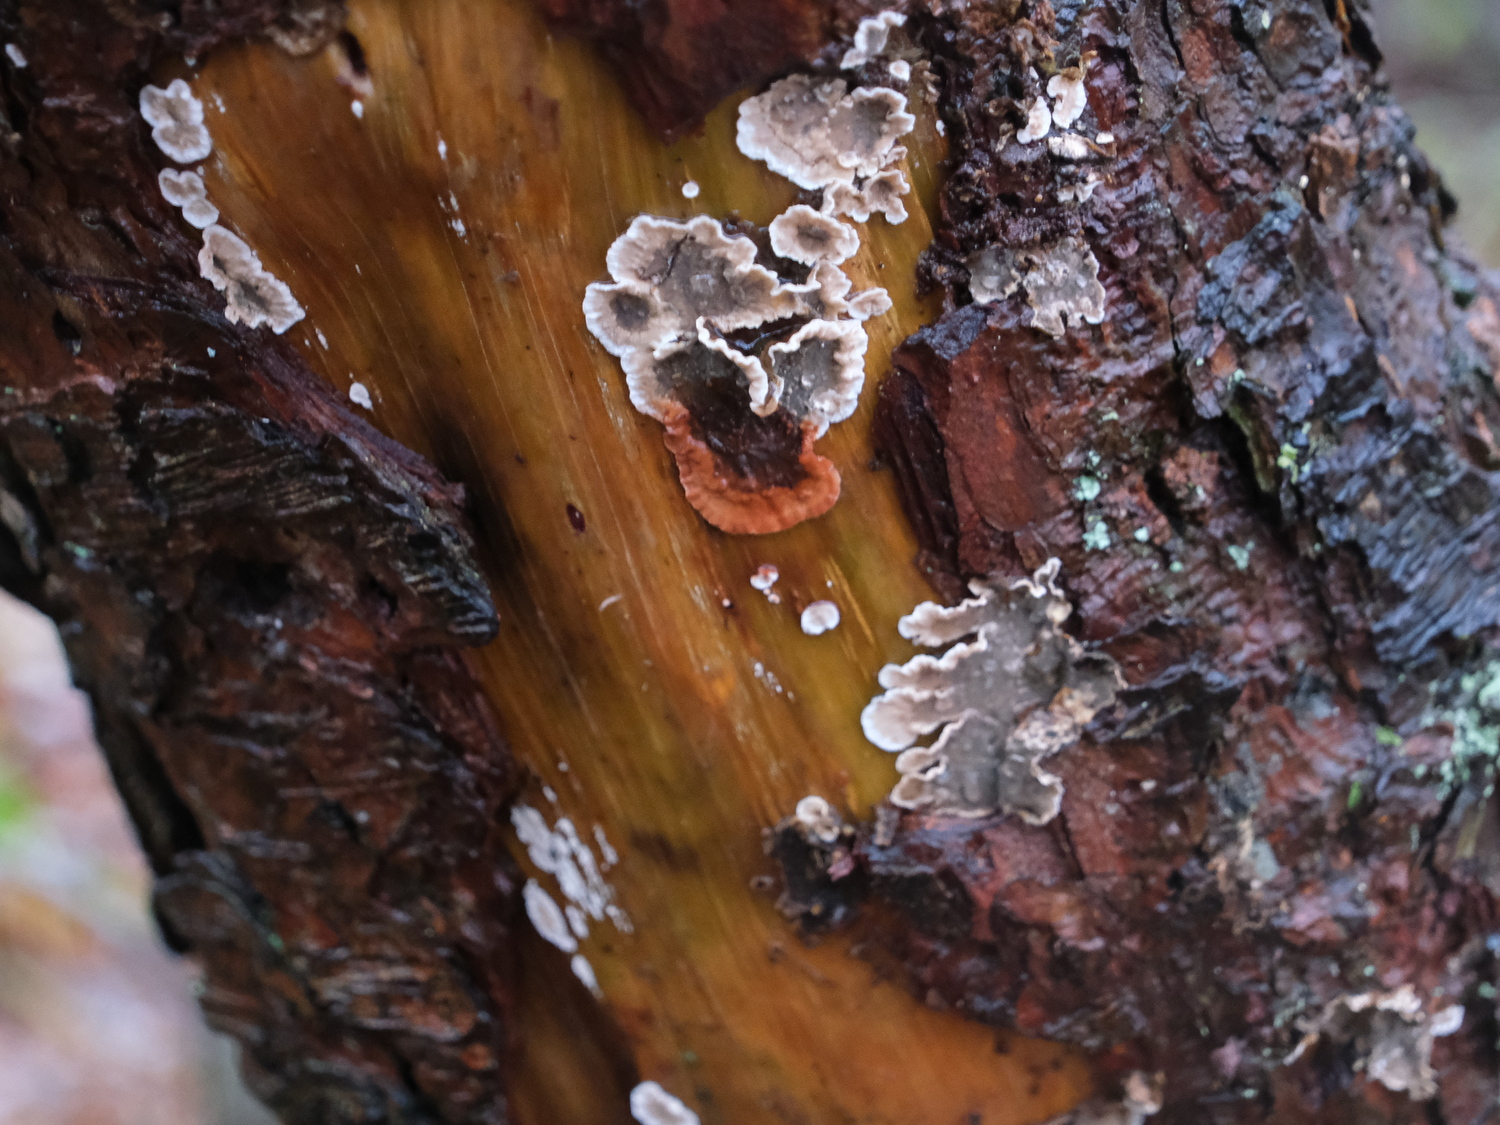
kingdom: Fungi
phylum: Basidiomycota
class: Agaricomycetes
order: Russulales
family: Stereaceae
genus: Stereum
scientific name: Stereum sanguinolentum
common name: blødende lædersvamp
